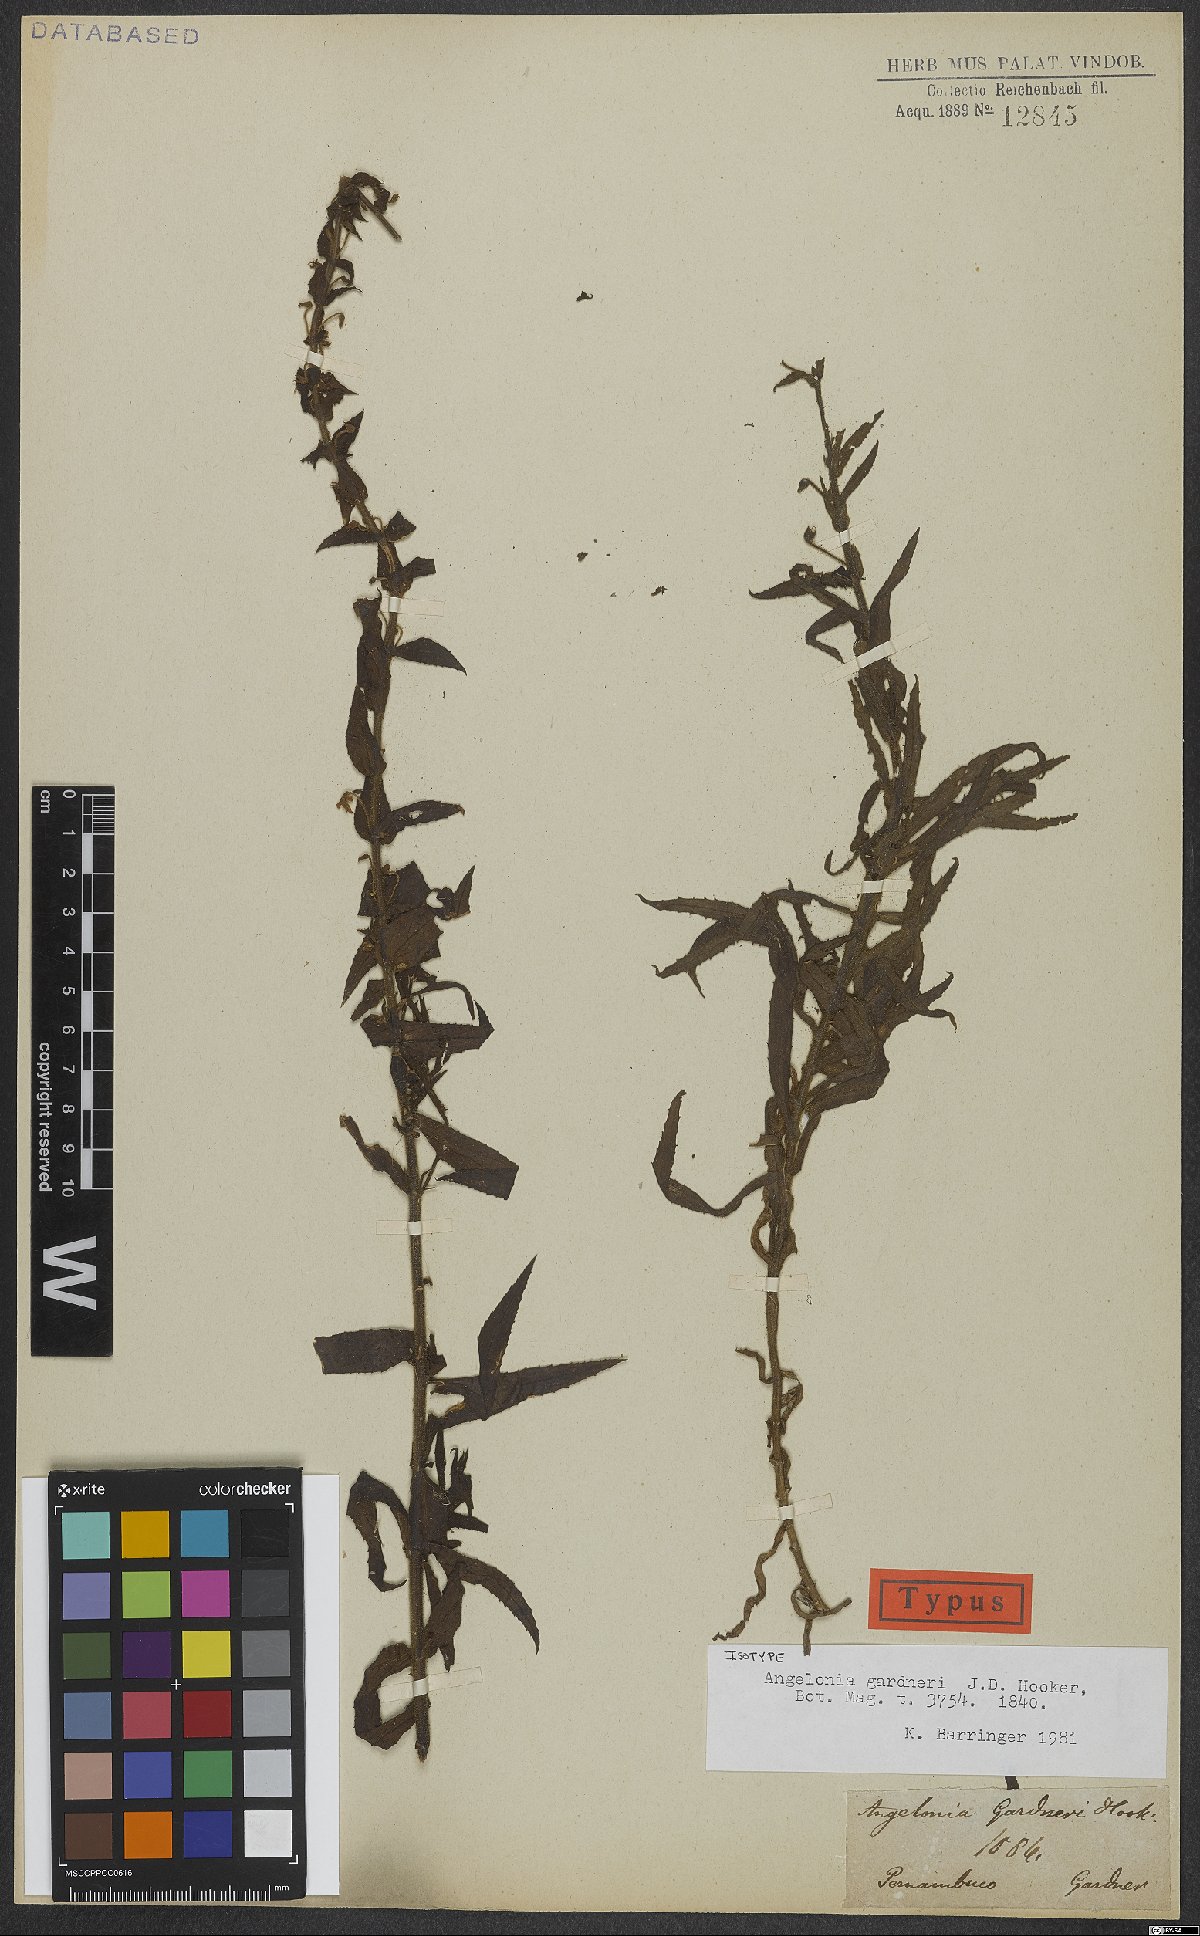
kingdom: Plantae
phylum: Tracheophyta
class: Magnoliopsida
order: Lamiales
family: Plantaginaceae
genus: Angelonia
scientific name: Angelonia gardneri
